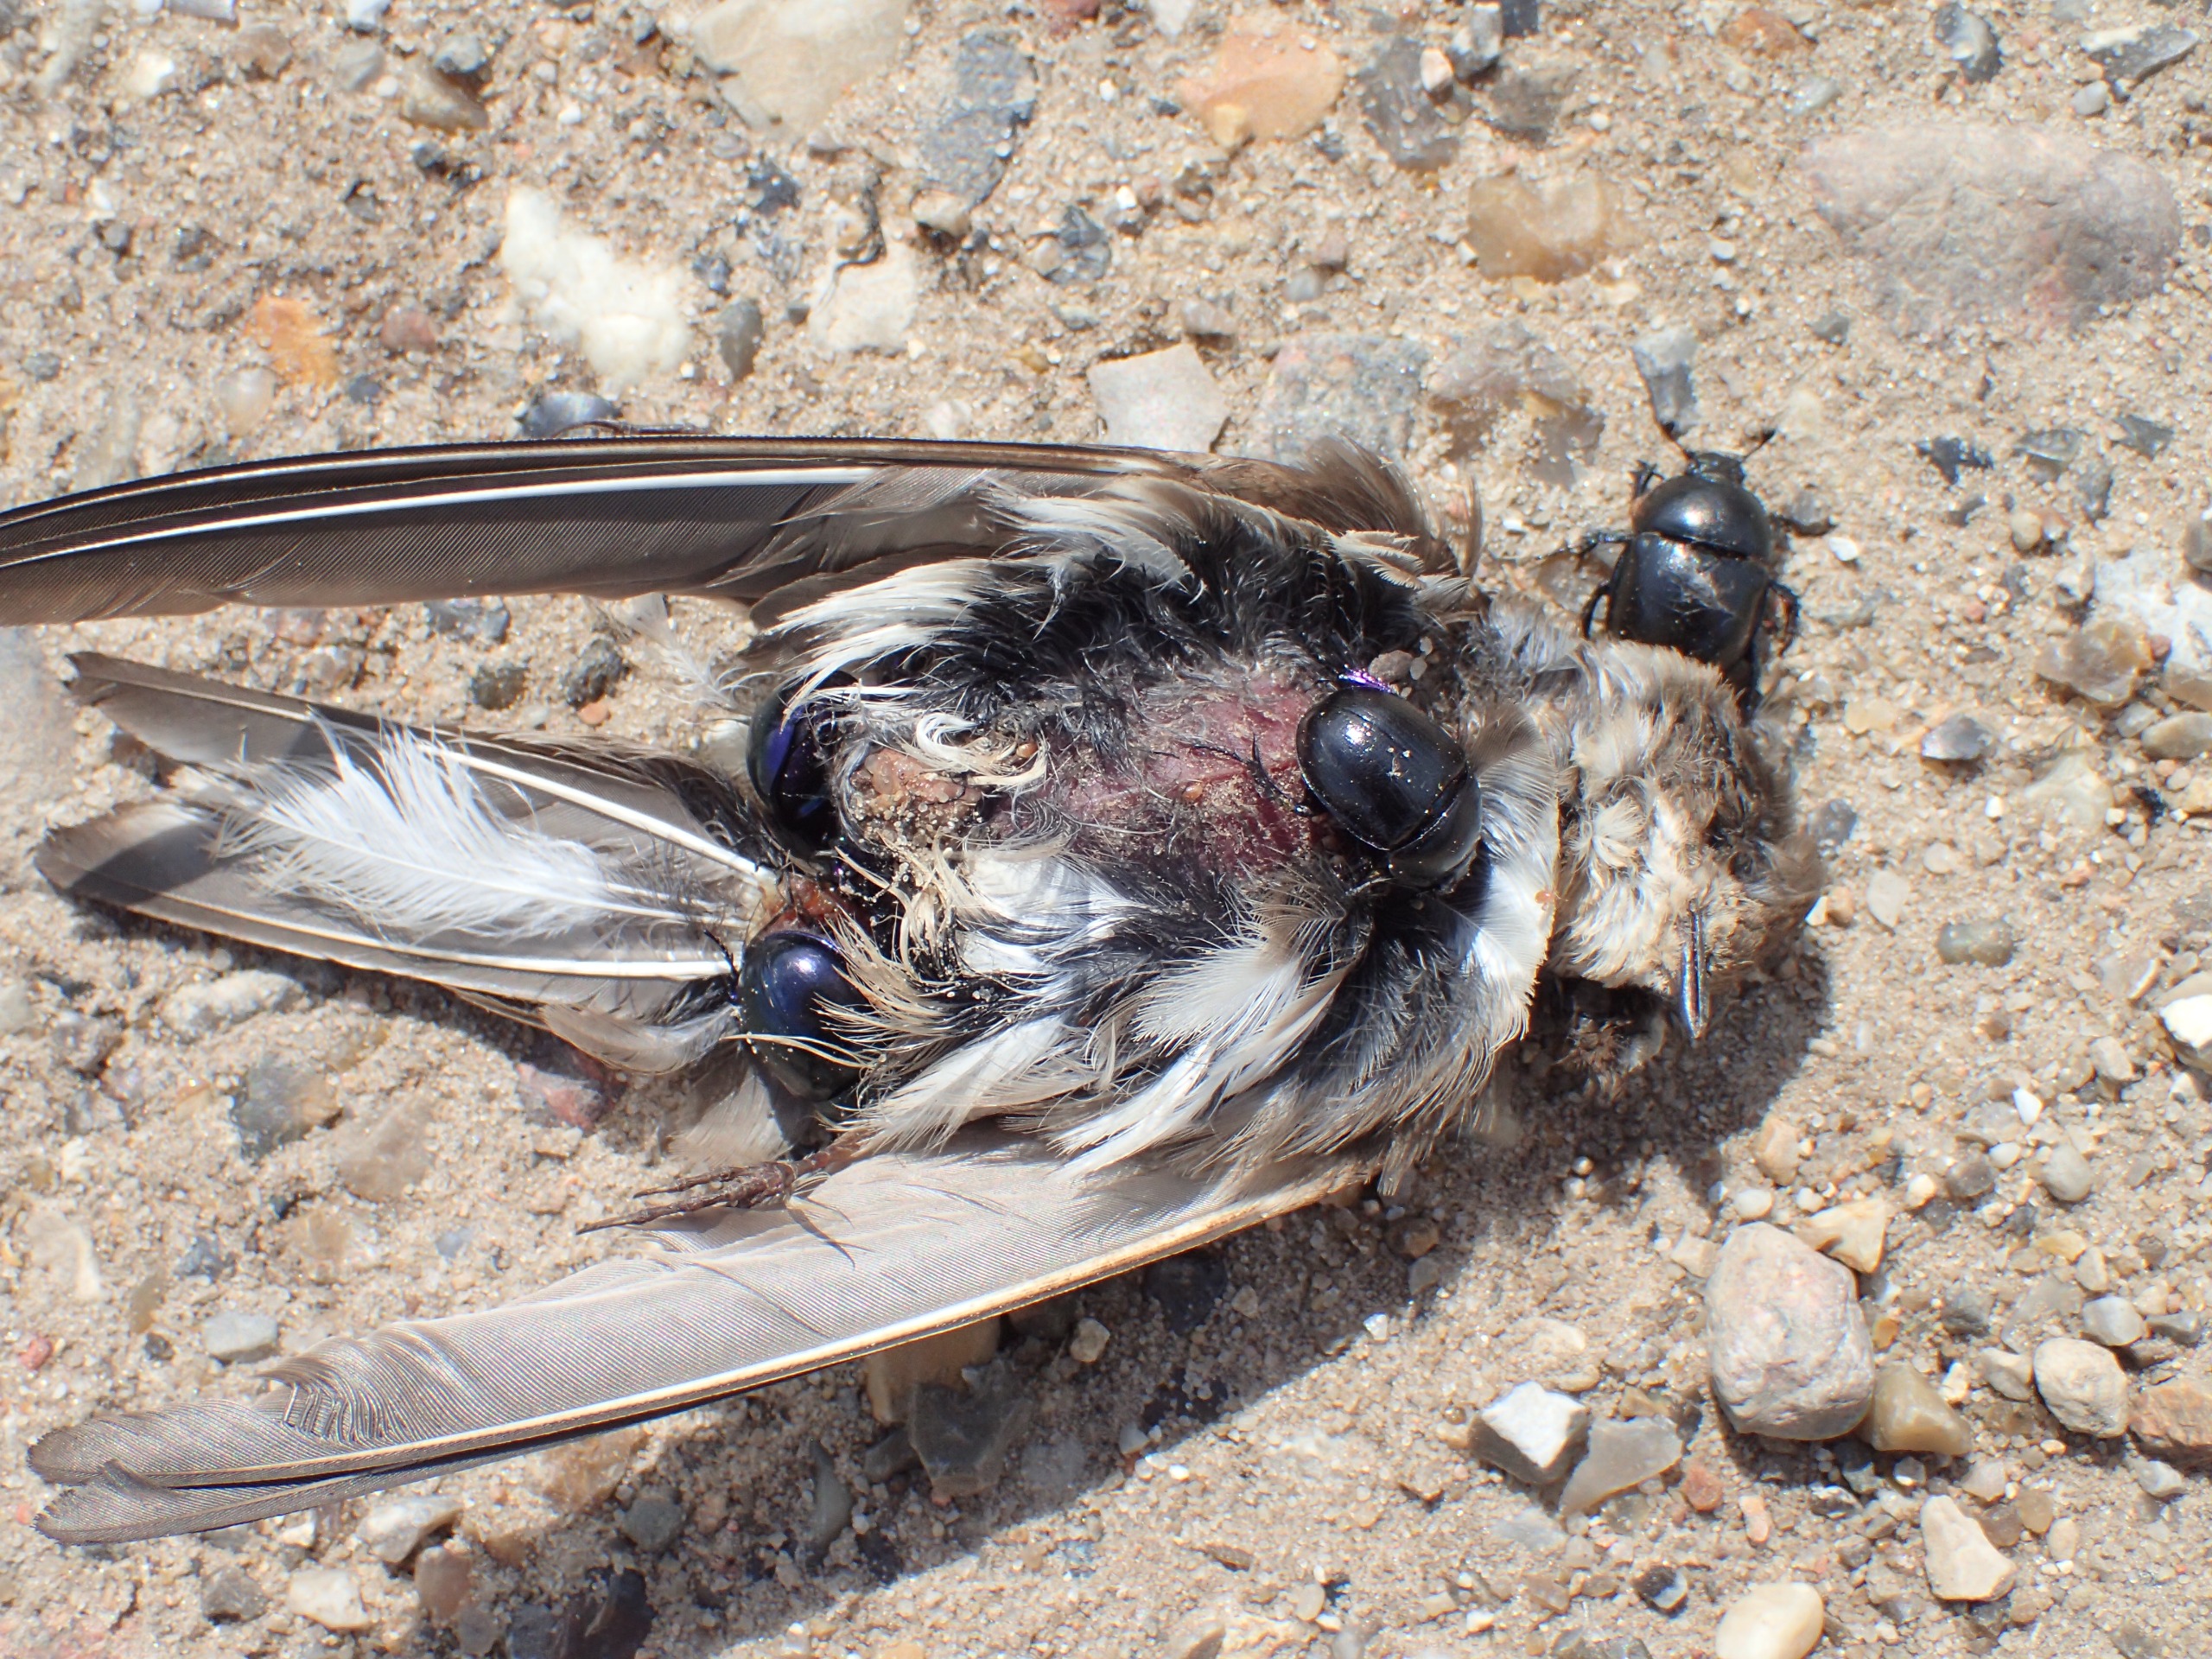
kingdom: Animalia
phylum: Chordata
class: Aves
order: Passeriformes
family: Hirundinidae
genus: Riparia
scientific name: Riparia riparia
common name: Digesvale
